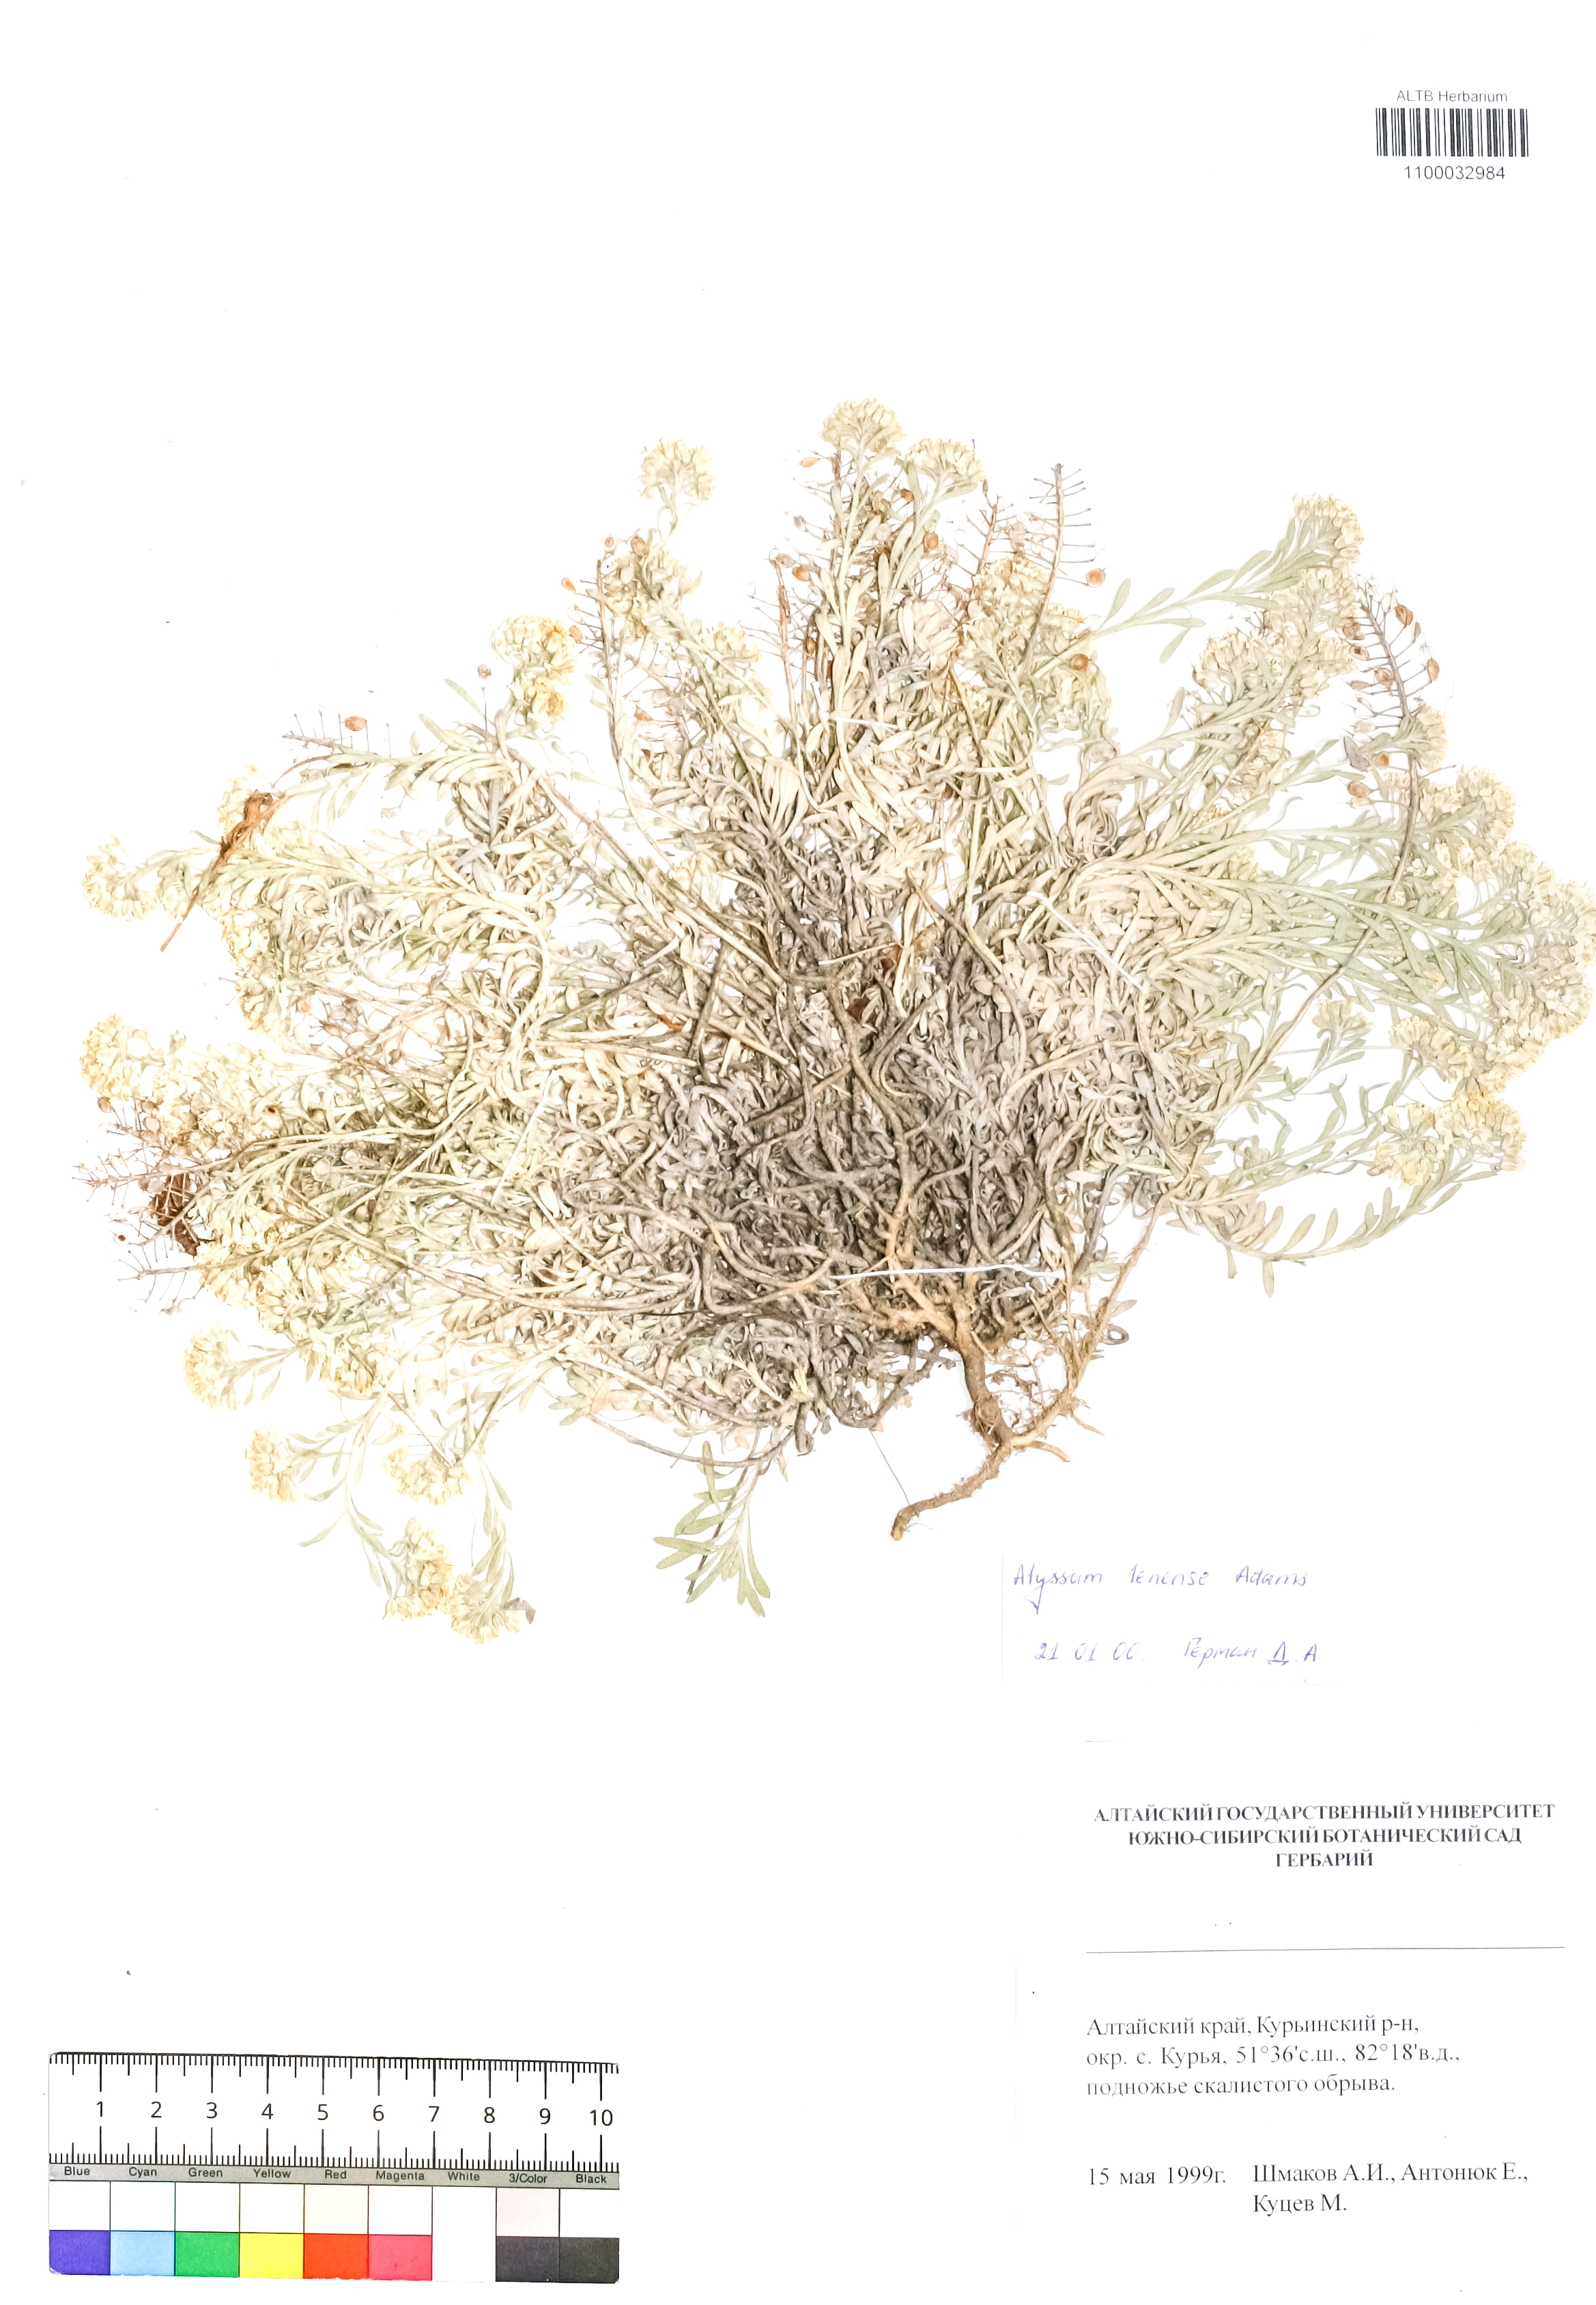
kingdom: Plantae
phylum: Tracheophyta
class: Magnoliopsida
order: Brassicales
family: Brassicaceae
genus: Alyssum
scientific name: Alyssum lenense
